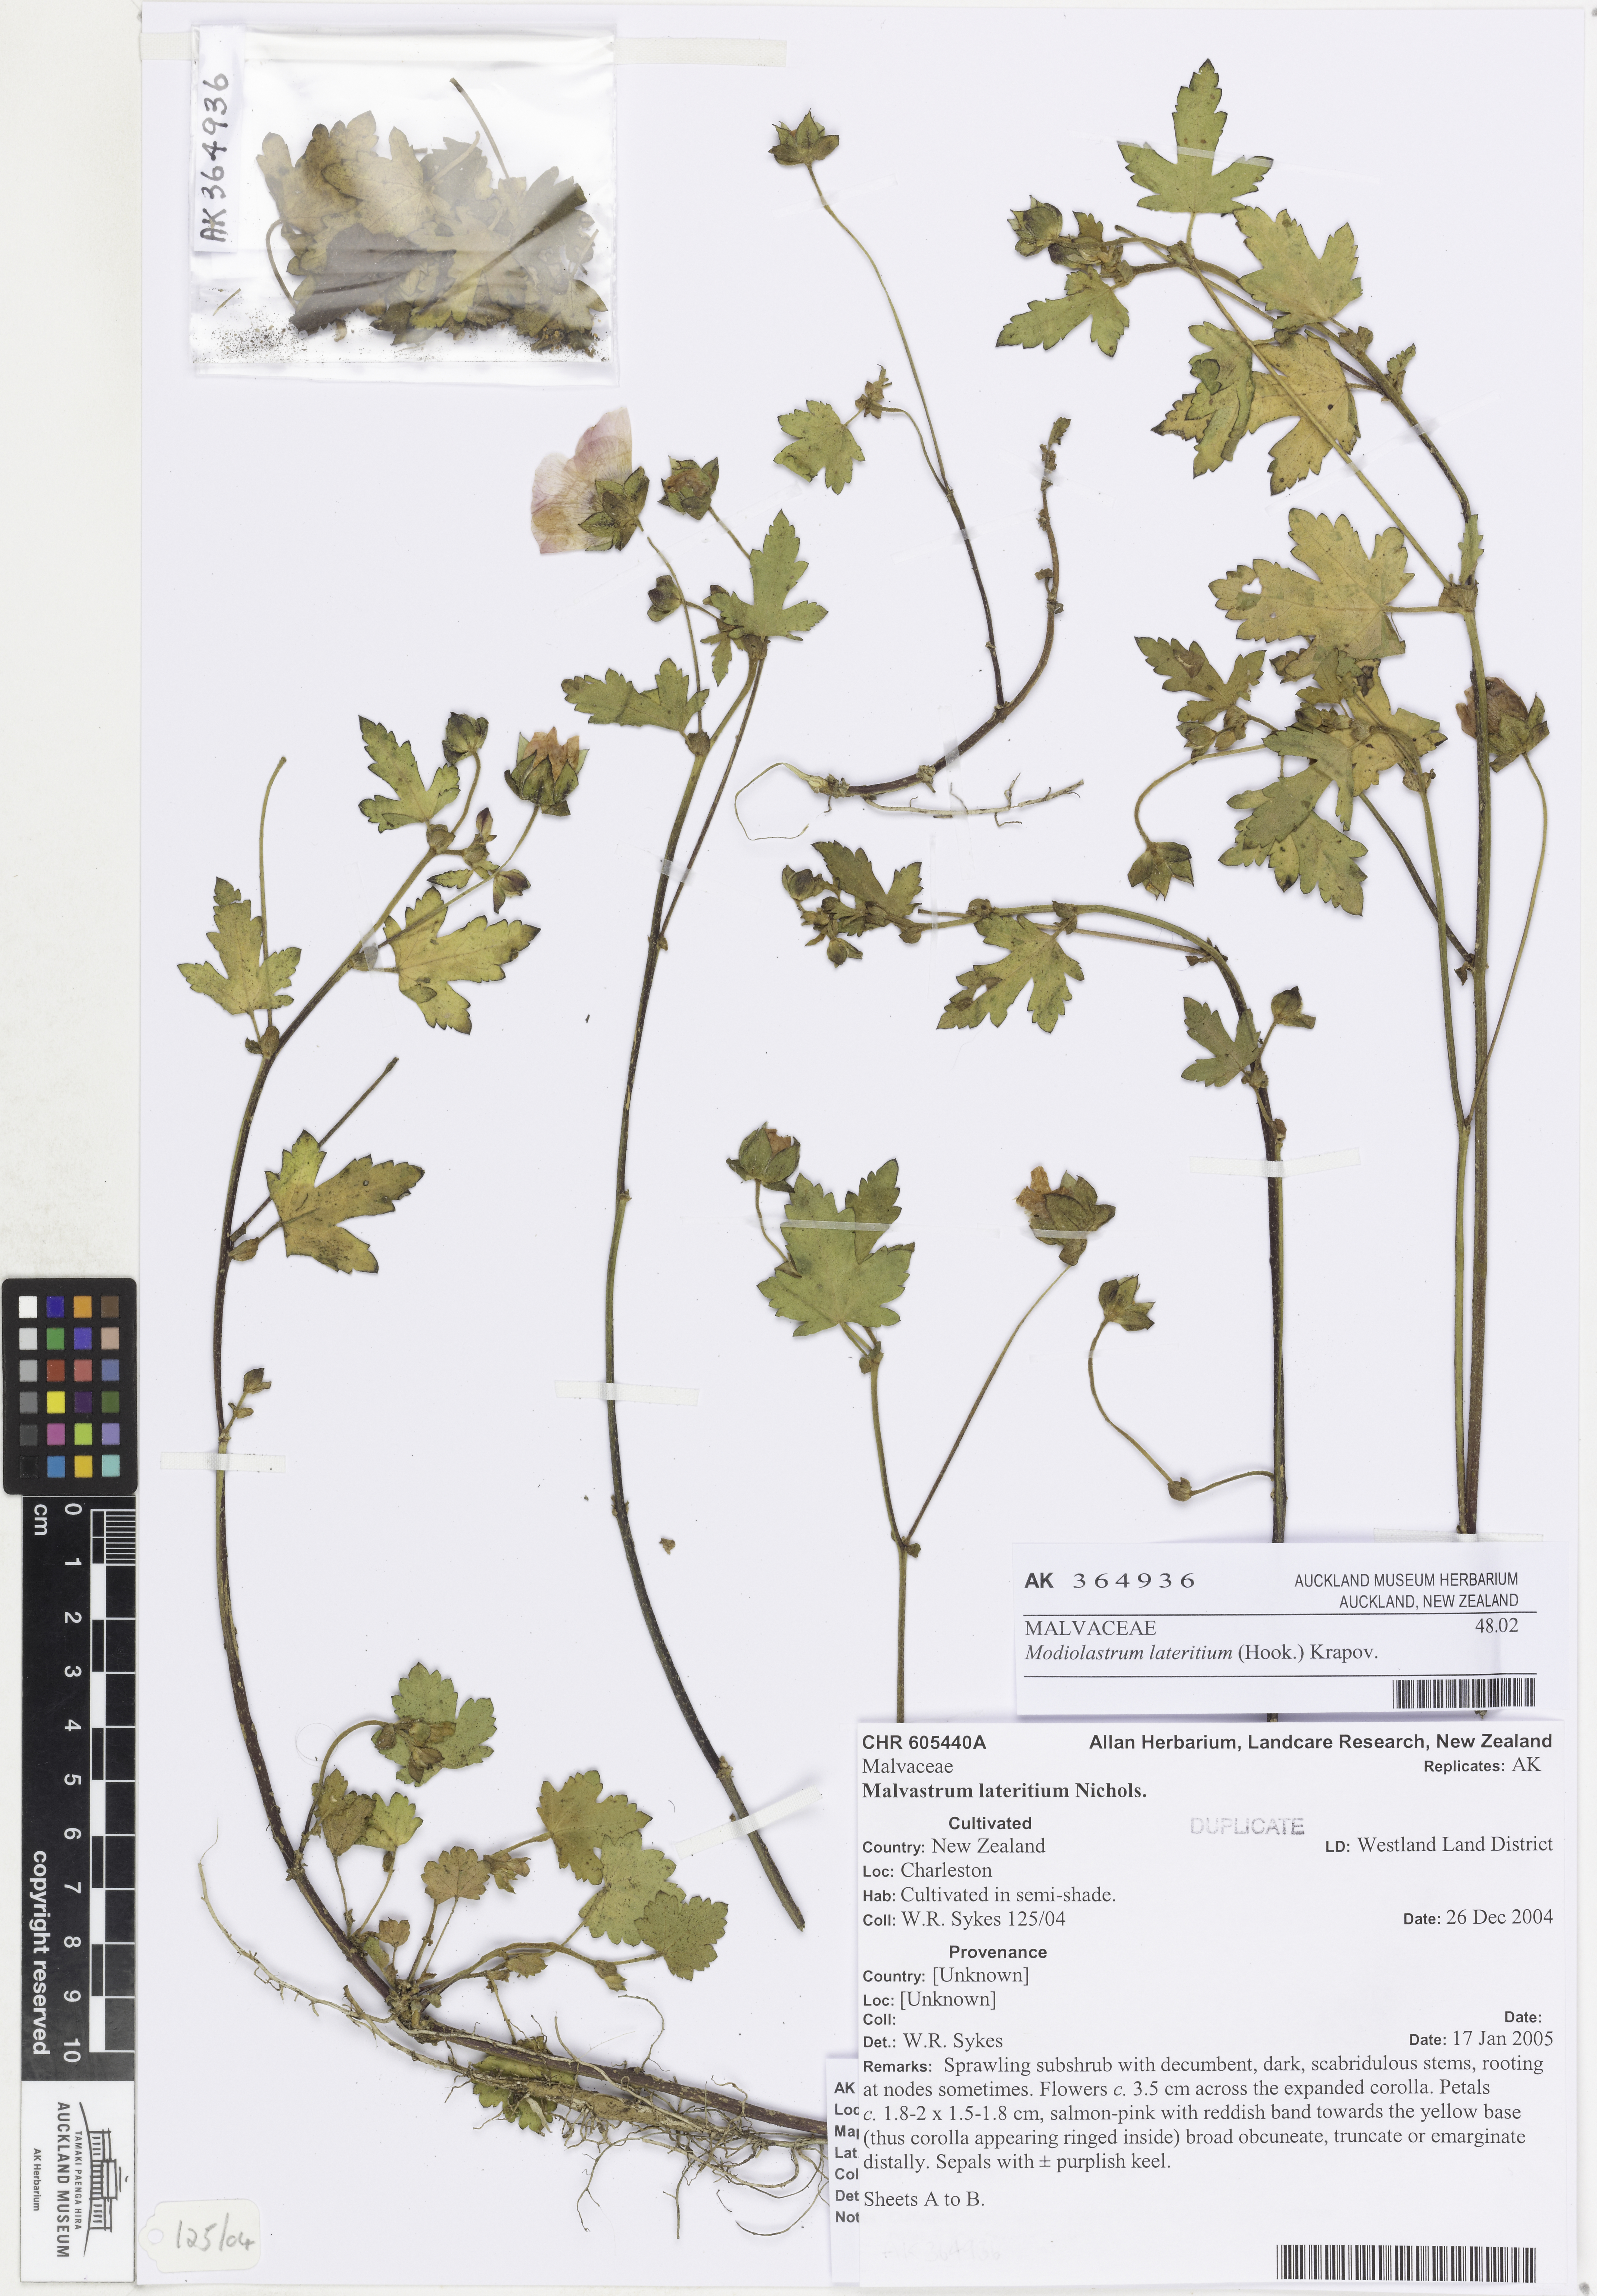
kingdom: Plantae
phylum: Tracheophyta
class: Magnoliopsida
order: Malvales
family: Malvaceae
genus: Modiolastrum
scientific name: Modiolastrum lateritium
